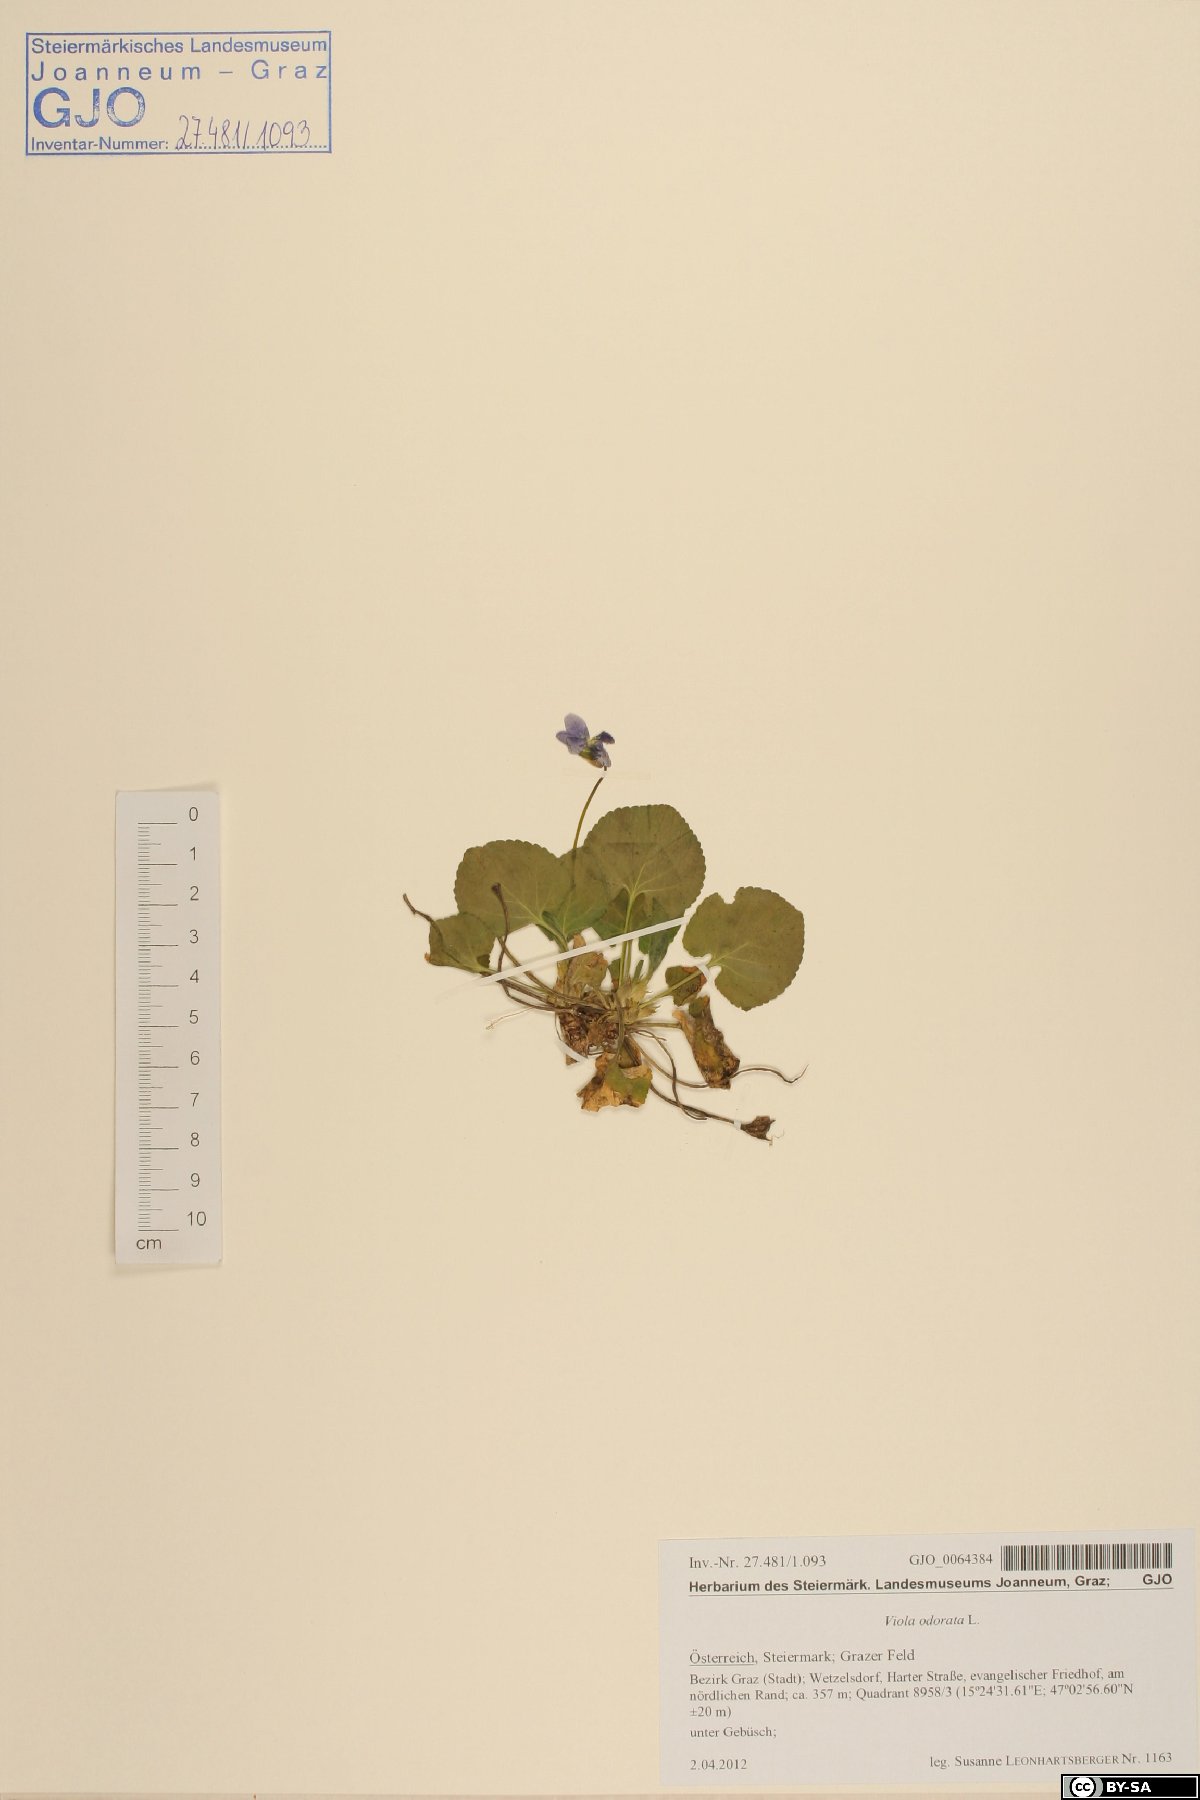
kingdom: Plantae
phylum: Tracheophyta
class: Magnoliopsida
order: Malpighiales
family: Violaceae
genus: Viola
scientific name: Viola odorata
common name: Sweet violet
